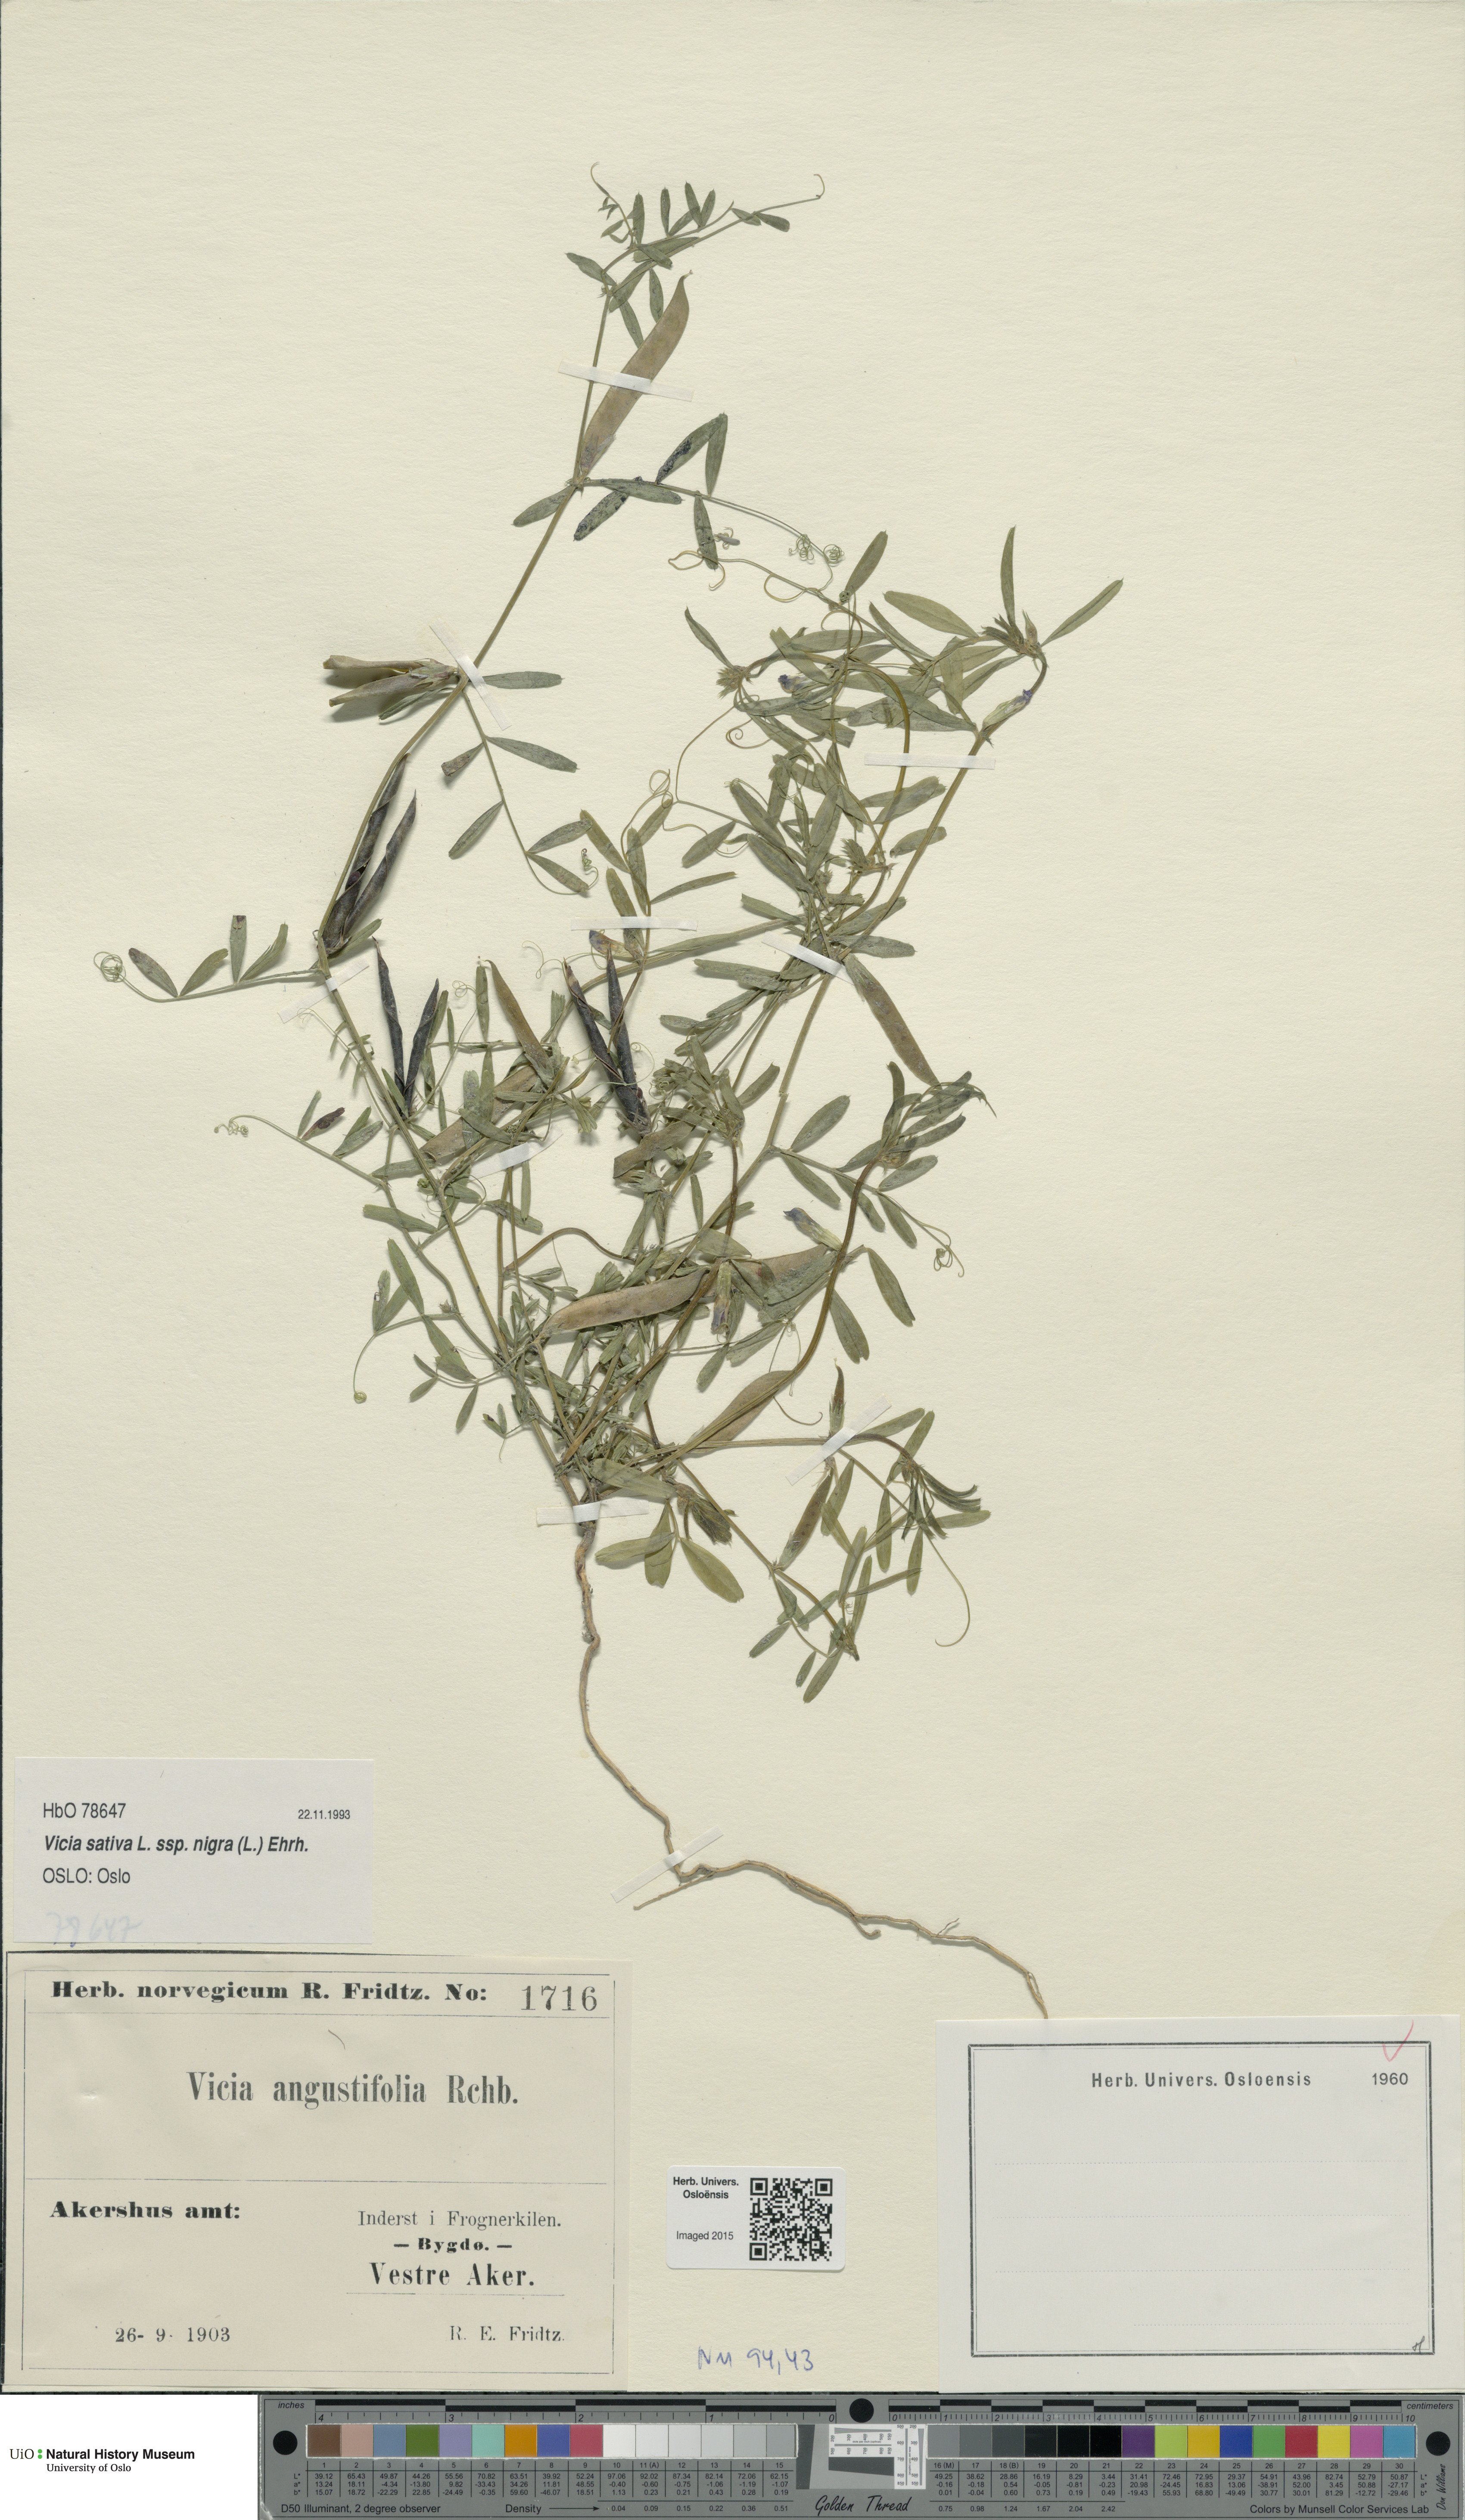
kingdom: Plantae
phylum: Tracheophyta
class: Magnoliopsida
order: Fabales
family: Fabaceae
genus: Vicia
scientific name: Vicia sativa
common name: Garden vetch
